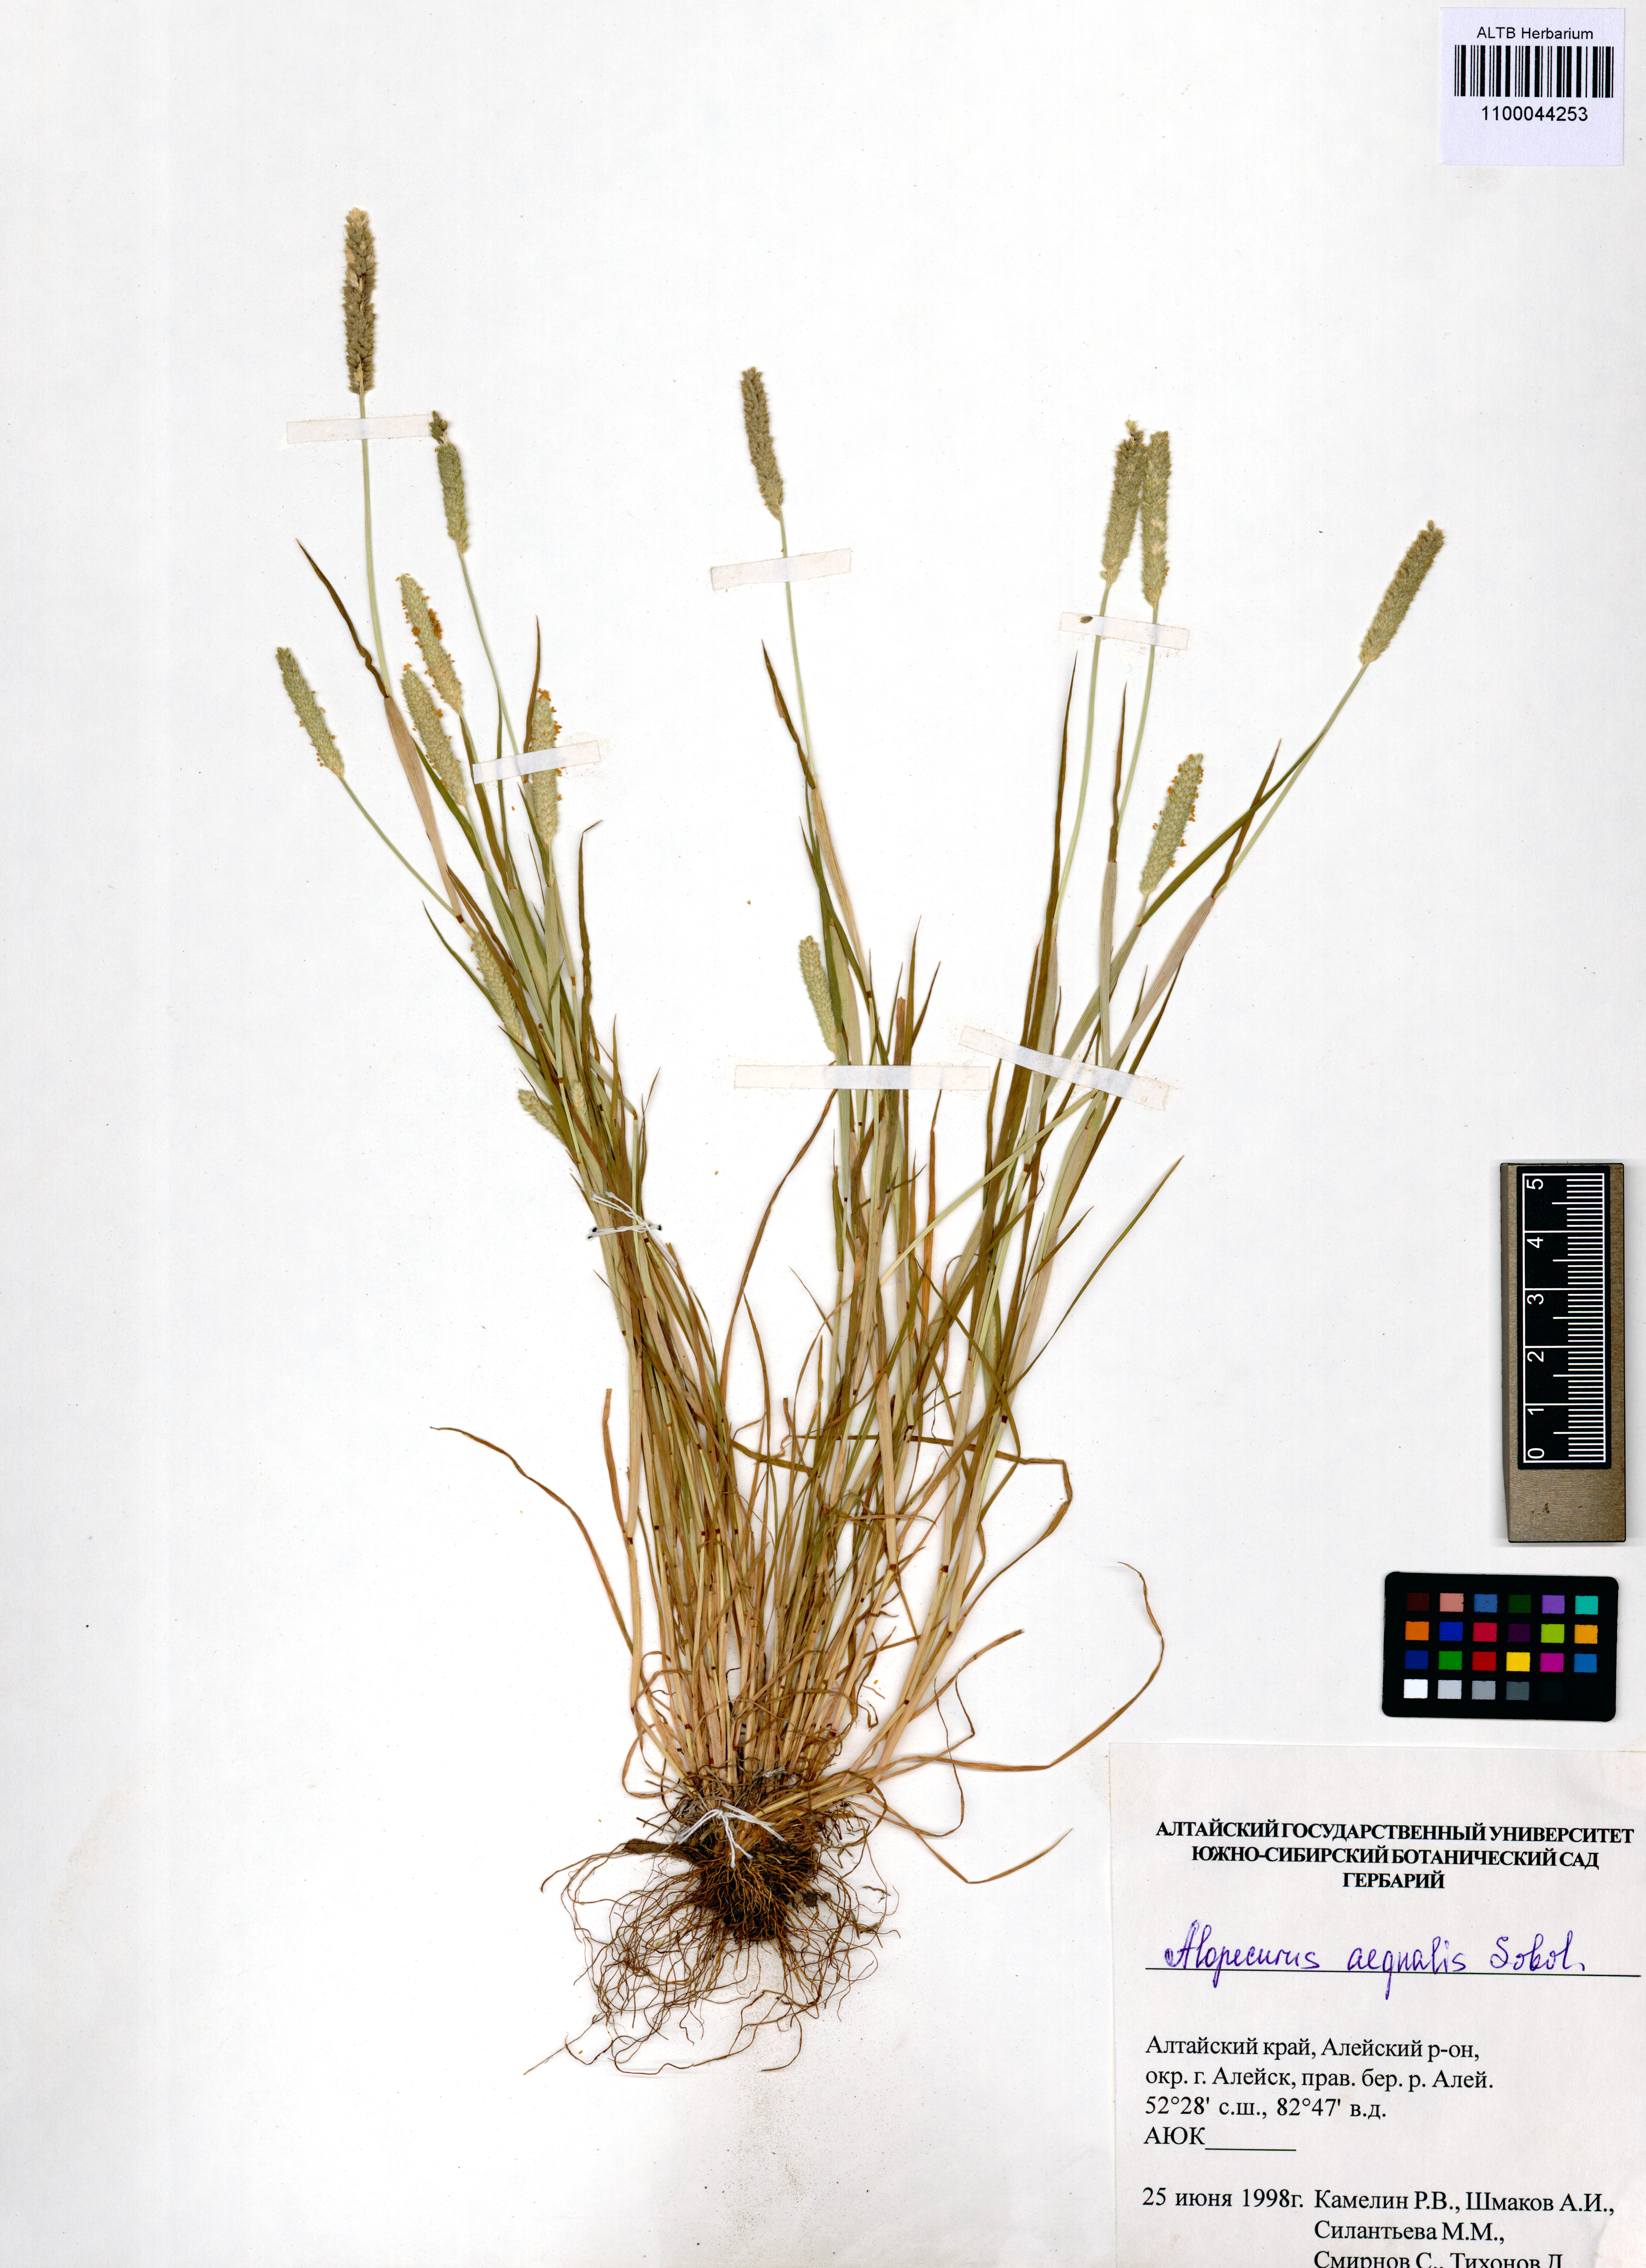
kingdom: Plantae
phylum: Tracheophyta
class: Liliopsida
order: Poales
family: Poaceae
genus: Alopecurus
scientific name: Alopecurus aequalis
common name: Orange foxtail
